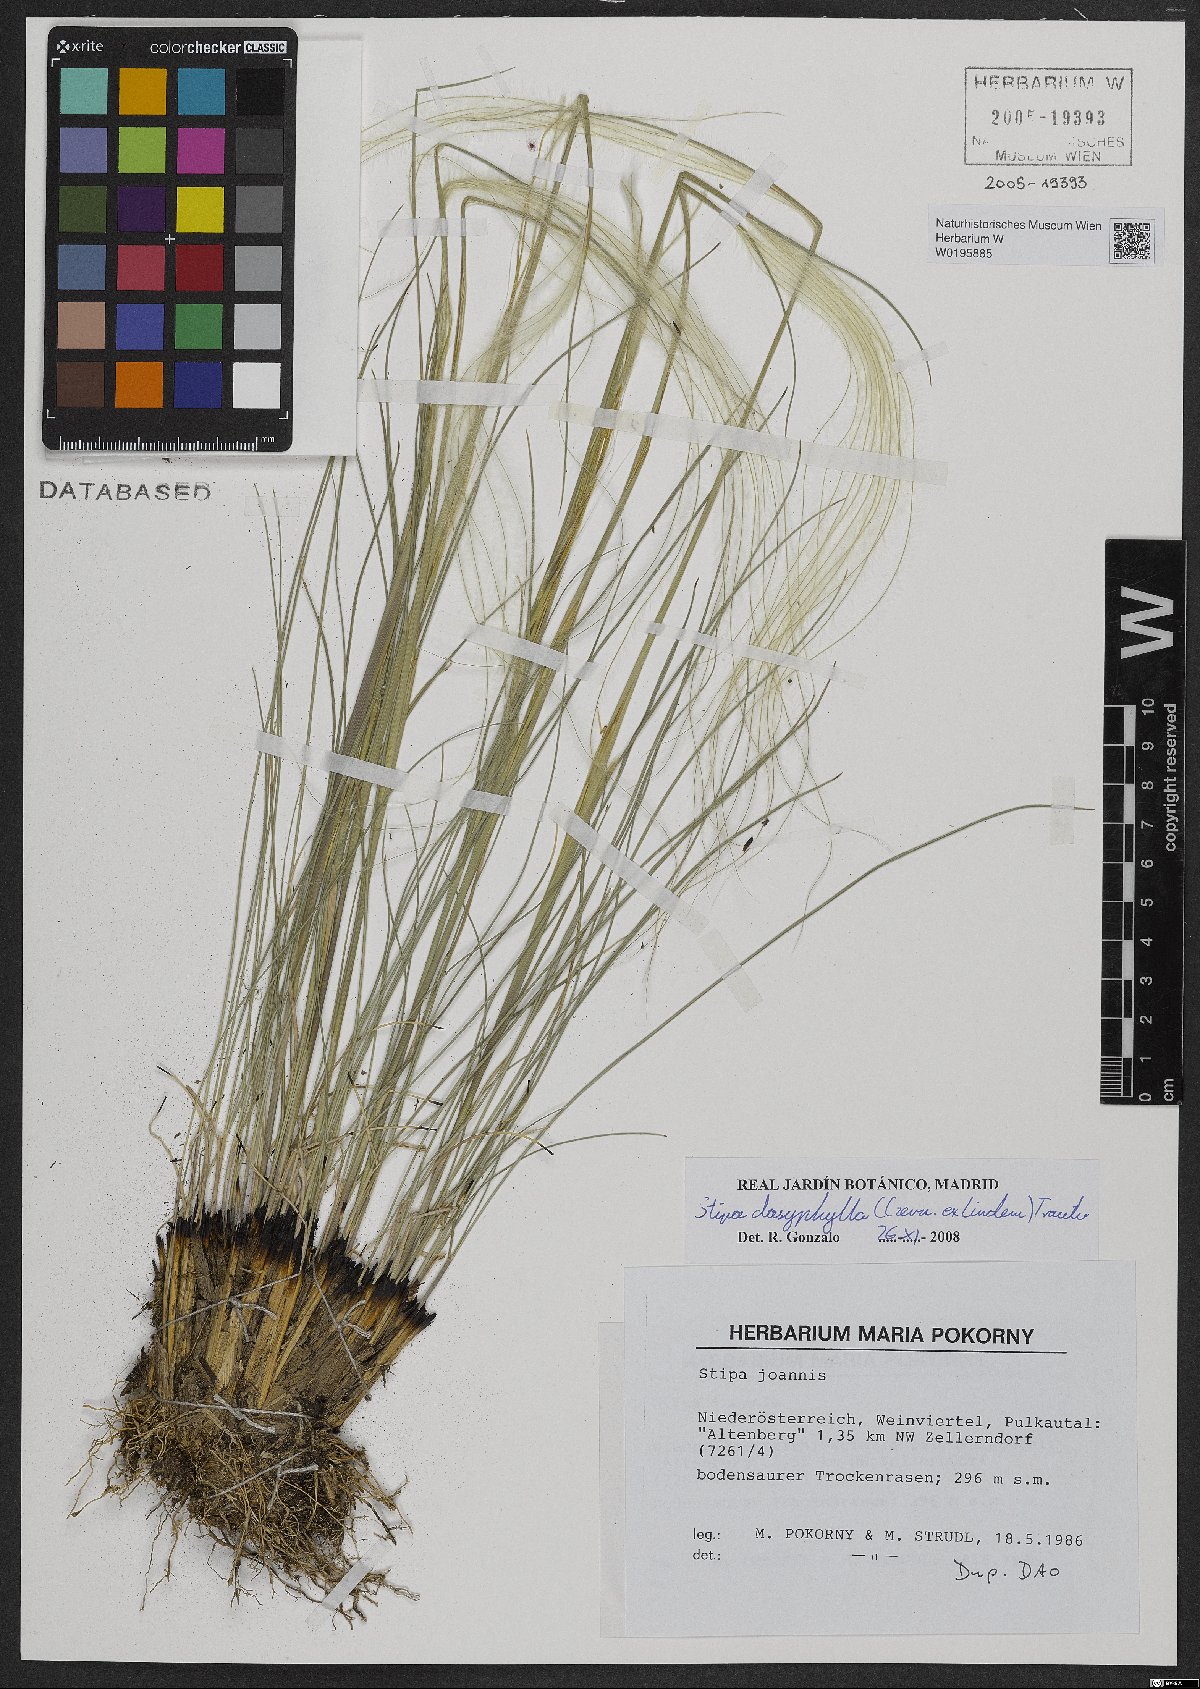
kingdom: Plantae
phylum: Tracheophyta
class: Liliopsida
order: Poales
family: Poaceae
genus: Stipa
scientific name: Stipa dasyphylla
